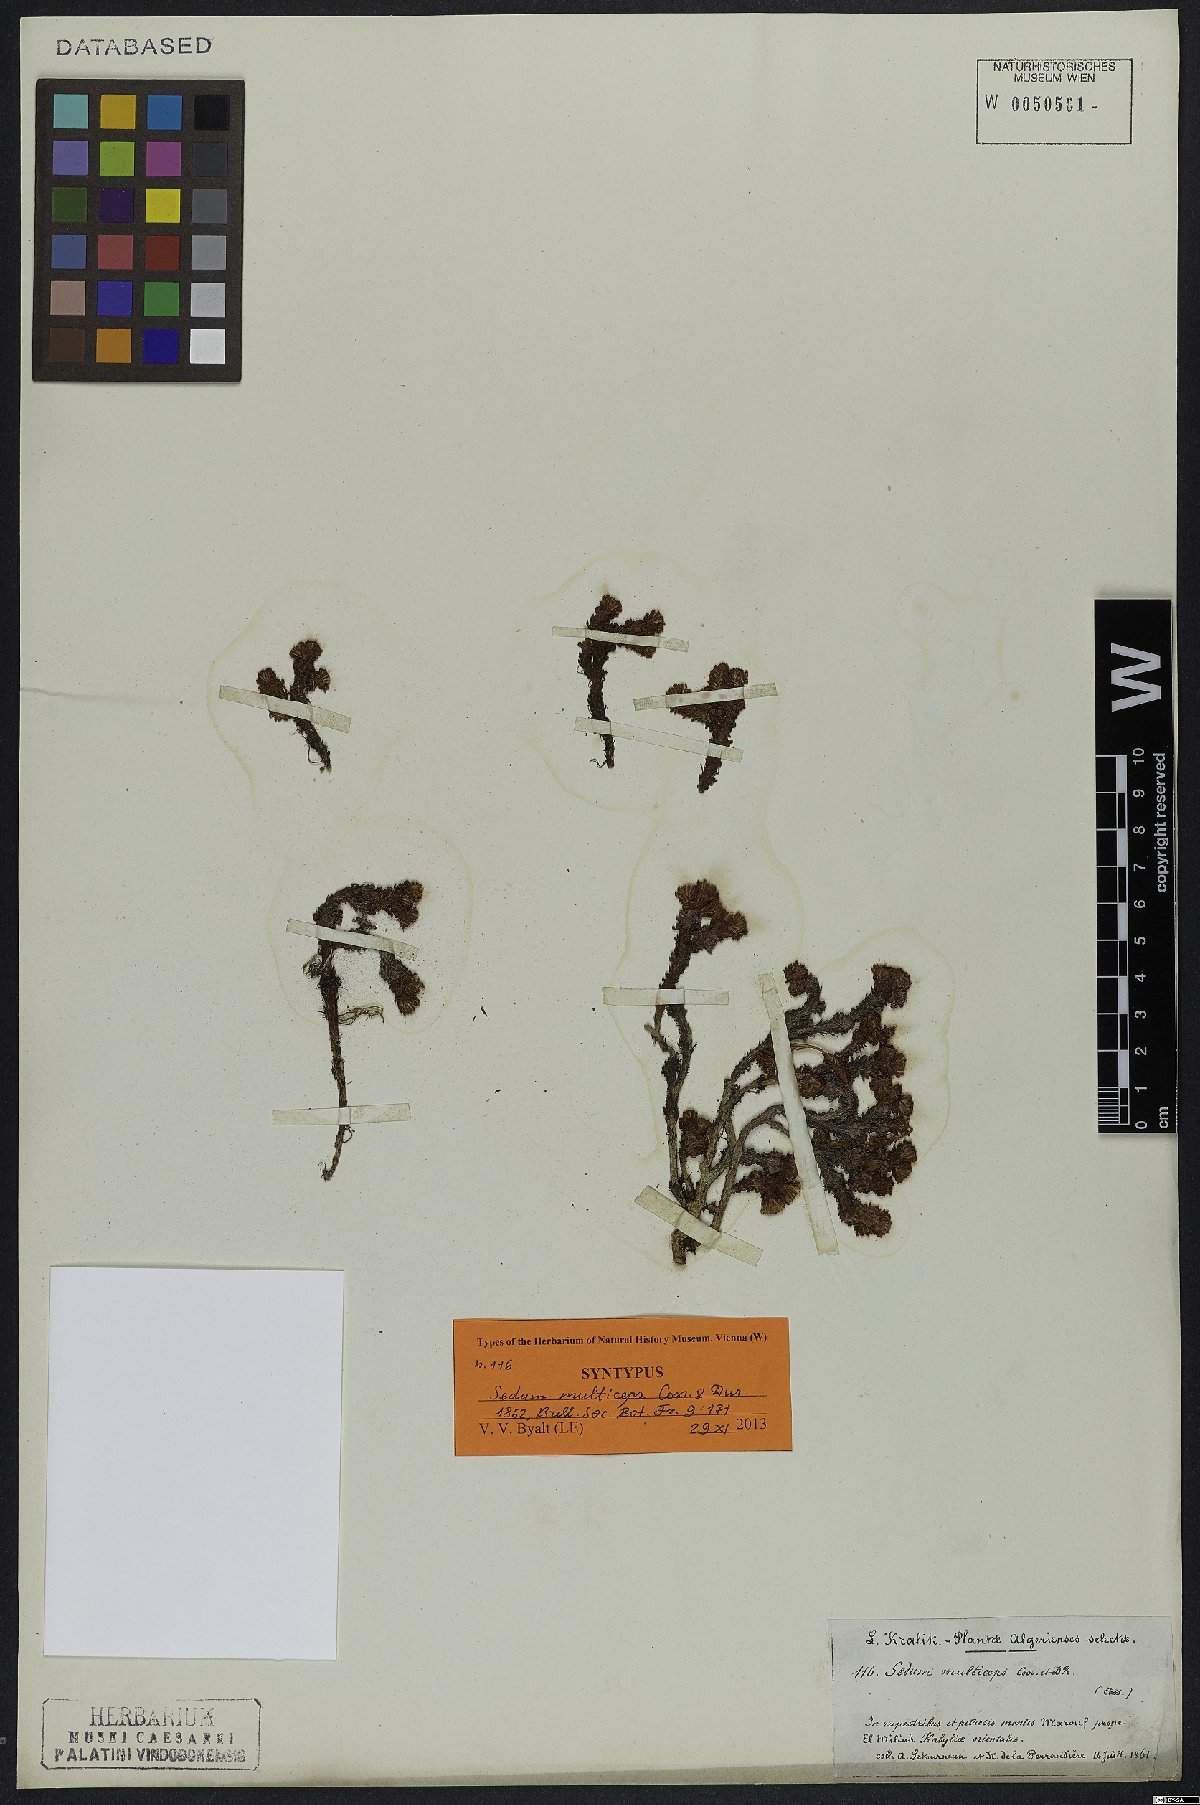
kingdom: Plantae
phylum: Tracheophyta
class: Magnoliopsida
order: Saxifragales
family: Crassulaceae
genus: Sedum
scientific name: Sedum multiceps
